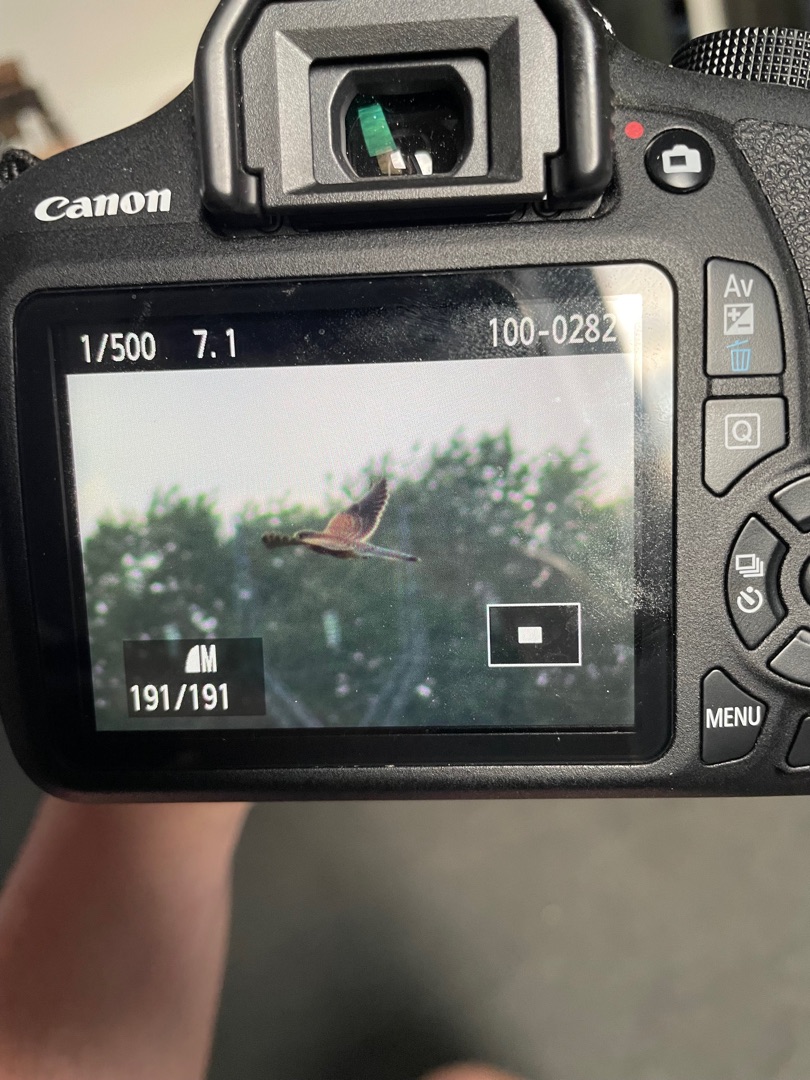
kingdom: Animalia
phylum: Chordata
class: Aves
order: Falconiformes
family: Falconidae
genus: Falco
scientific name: Falco tinnunculus
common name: Tårnfalk
